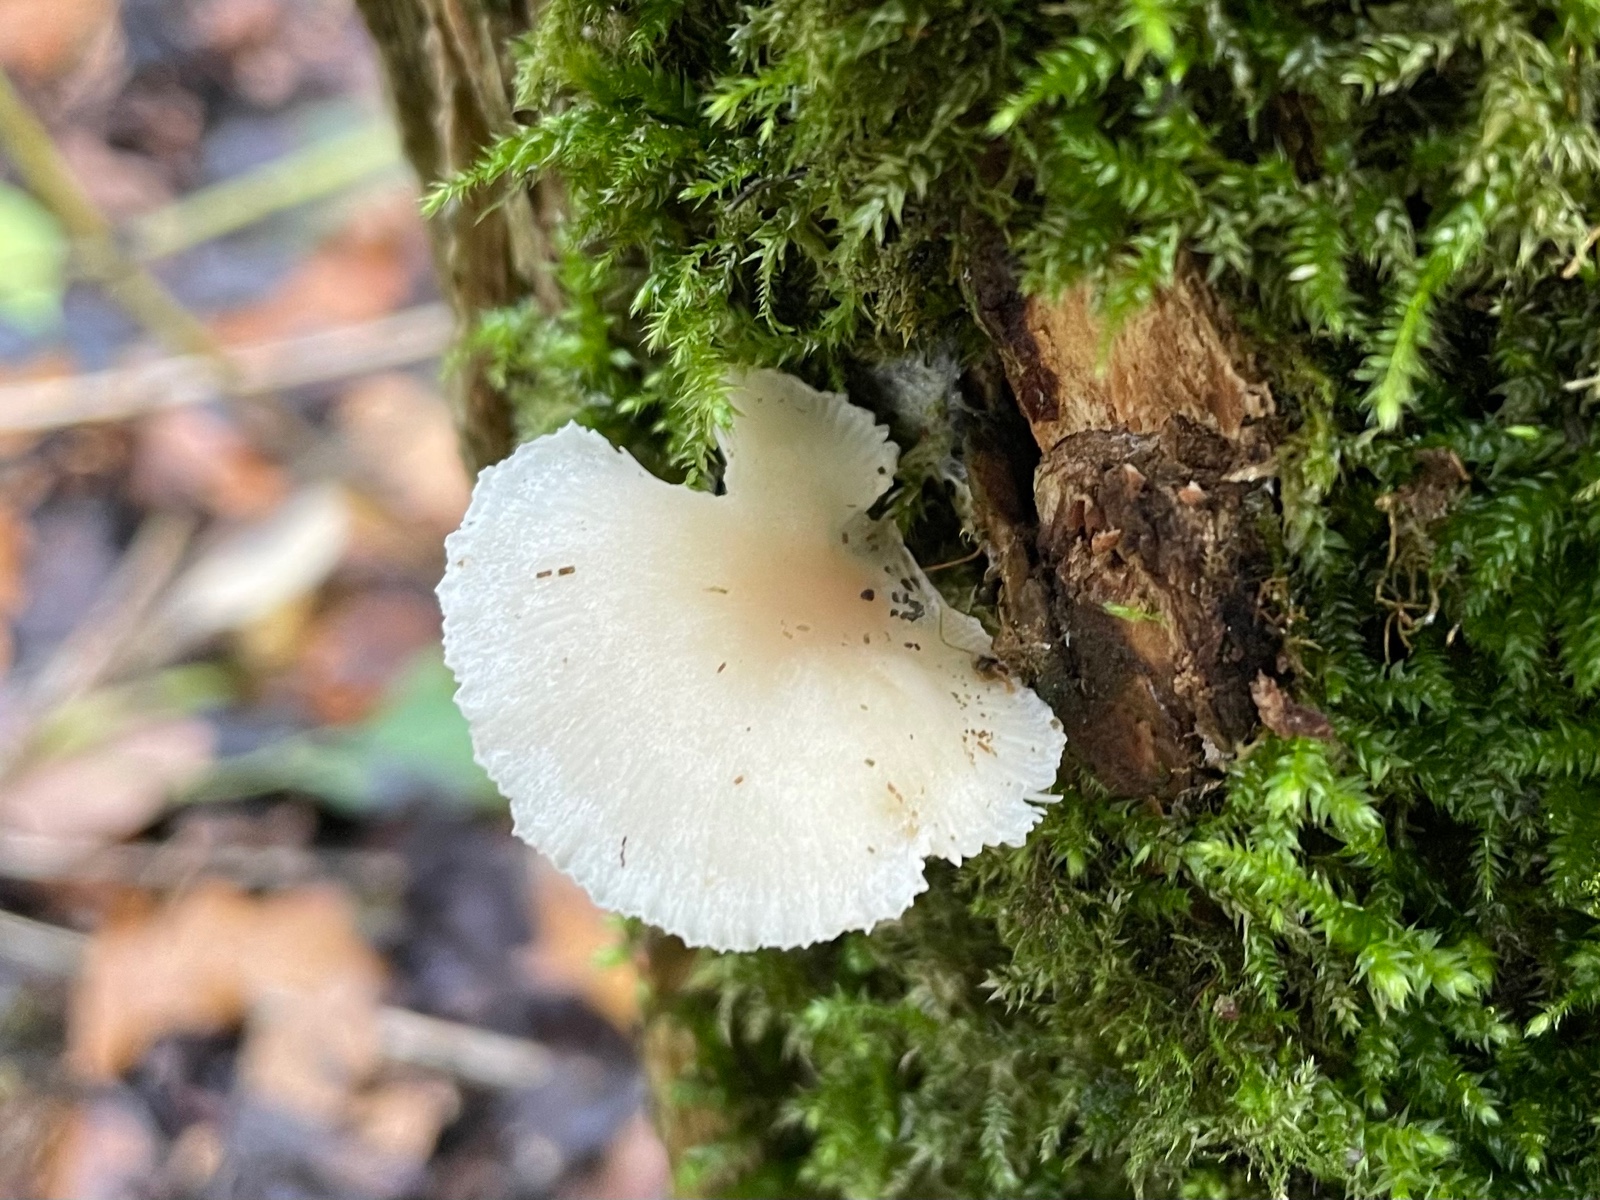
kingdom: Fungi
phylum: Basidiomycota
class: Agaricomycetes
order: Agaricales
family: Tricholomataceae
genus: Clitocybe
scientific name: Clitocybe
